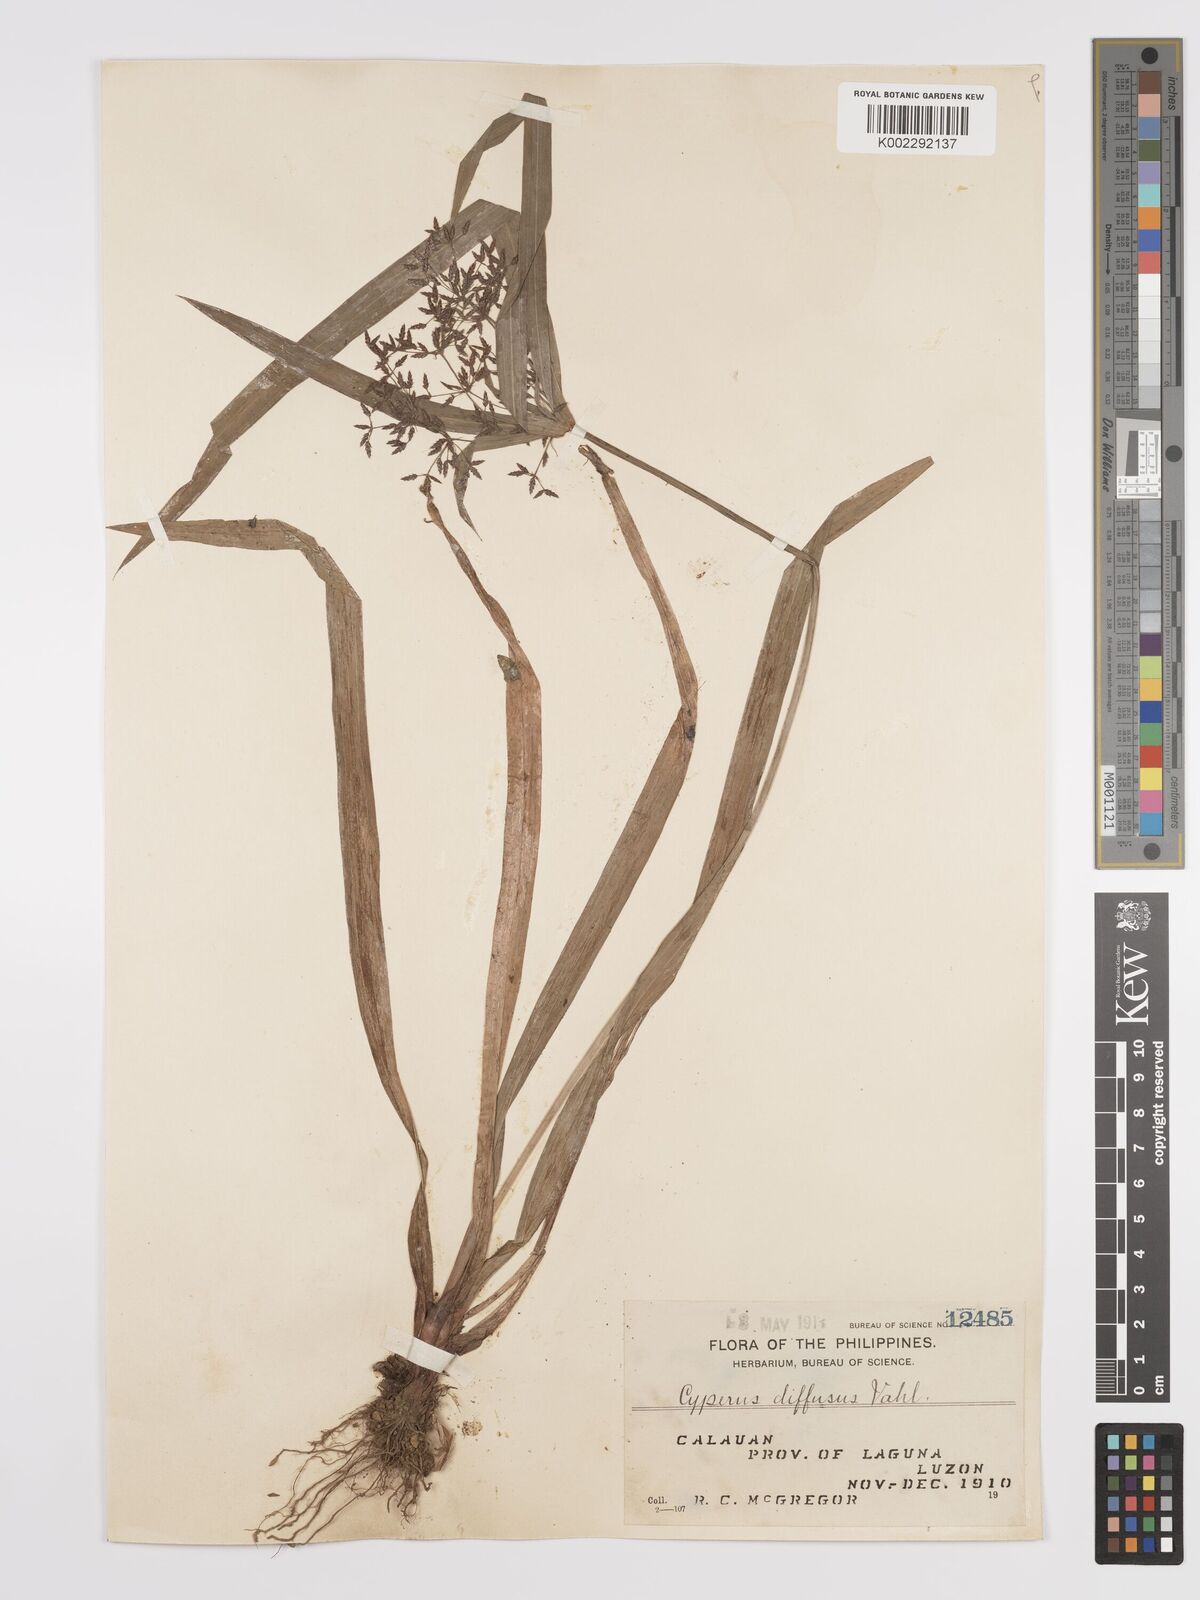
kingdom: Plantae
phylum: Tracheophyta
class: Liliopsida
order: Poales
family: Cyperaceae
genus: Cyperus
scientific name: Cyperus diffusus
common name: Dwarf umbrella grass
